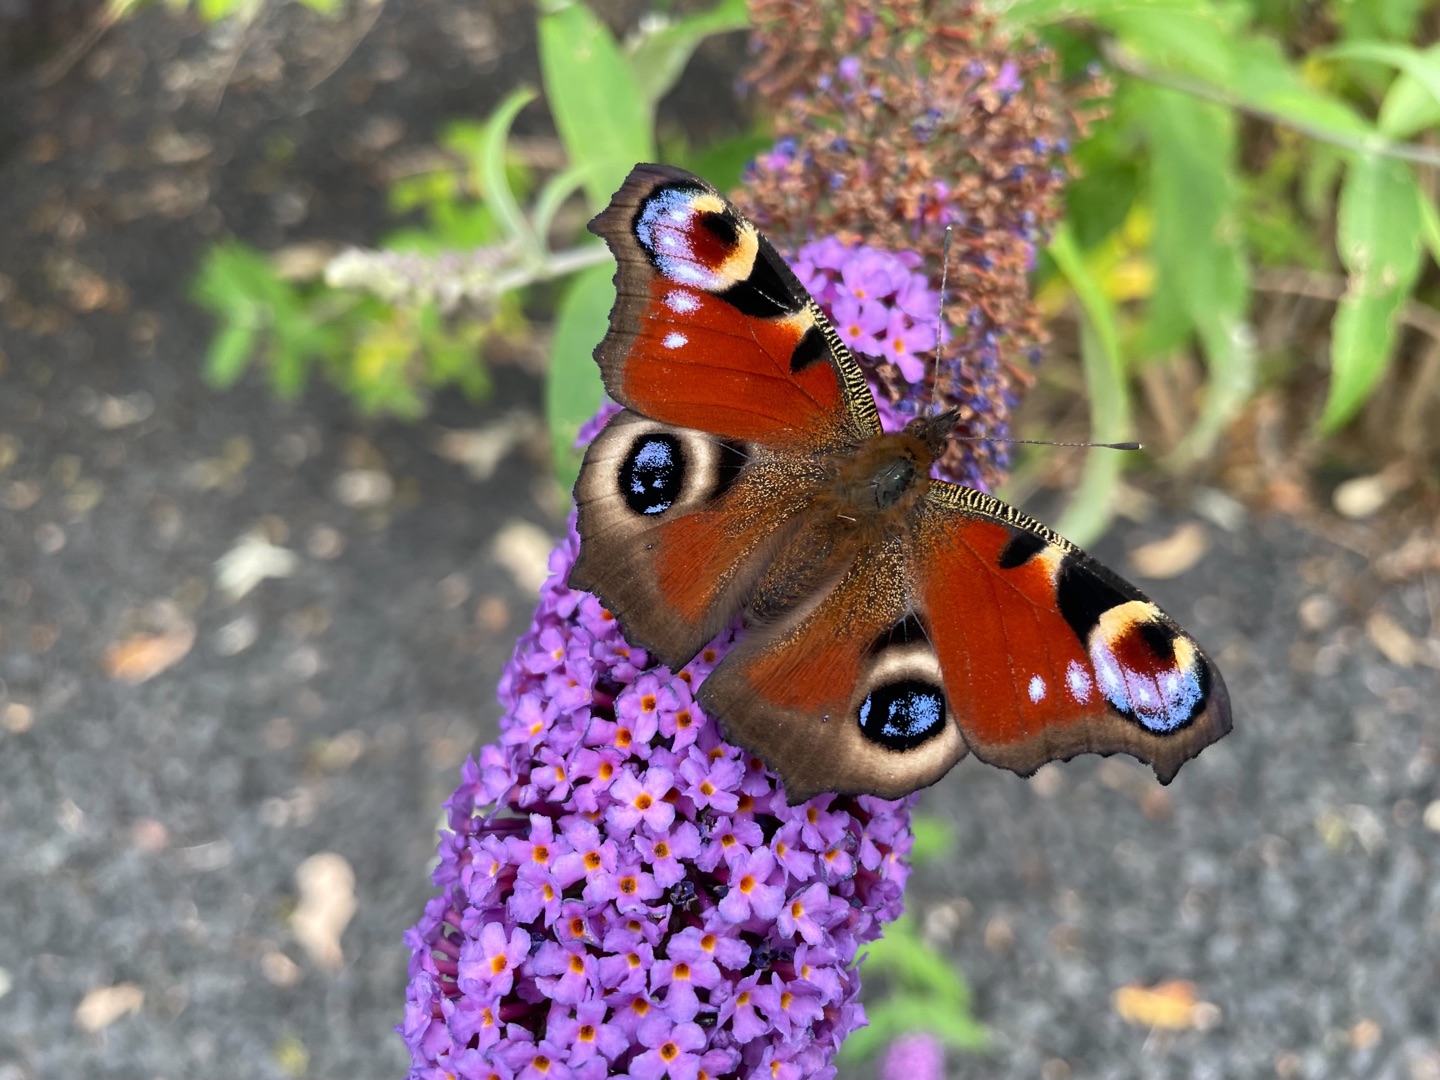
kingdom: Animalia
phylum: Arthropoda
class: Insecta
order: Lepidoptera
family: Nymphalidae
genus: Aglais
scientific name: Aglais io
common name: Dagpåfugleøje
